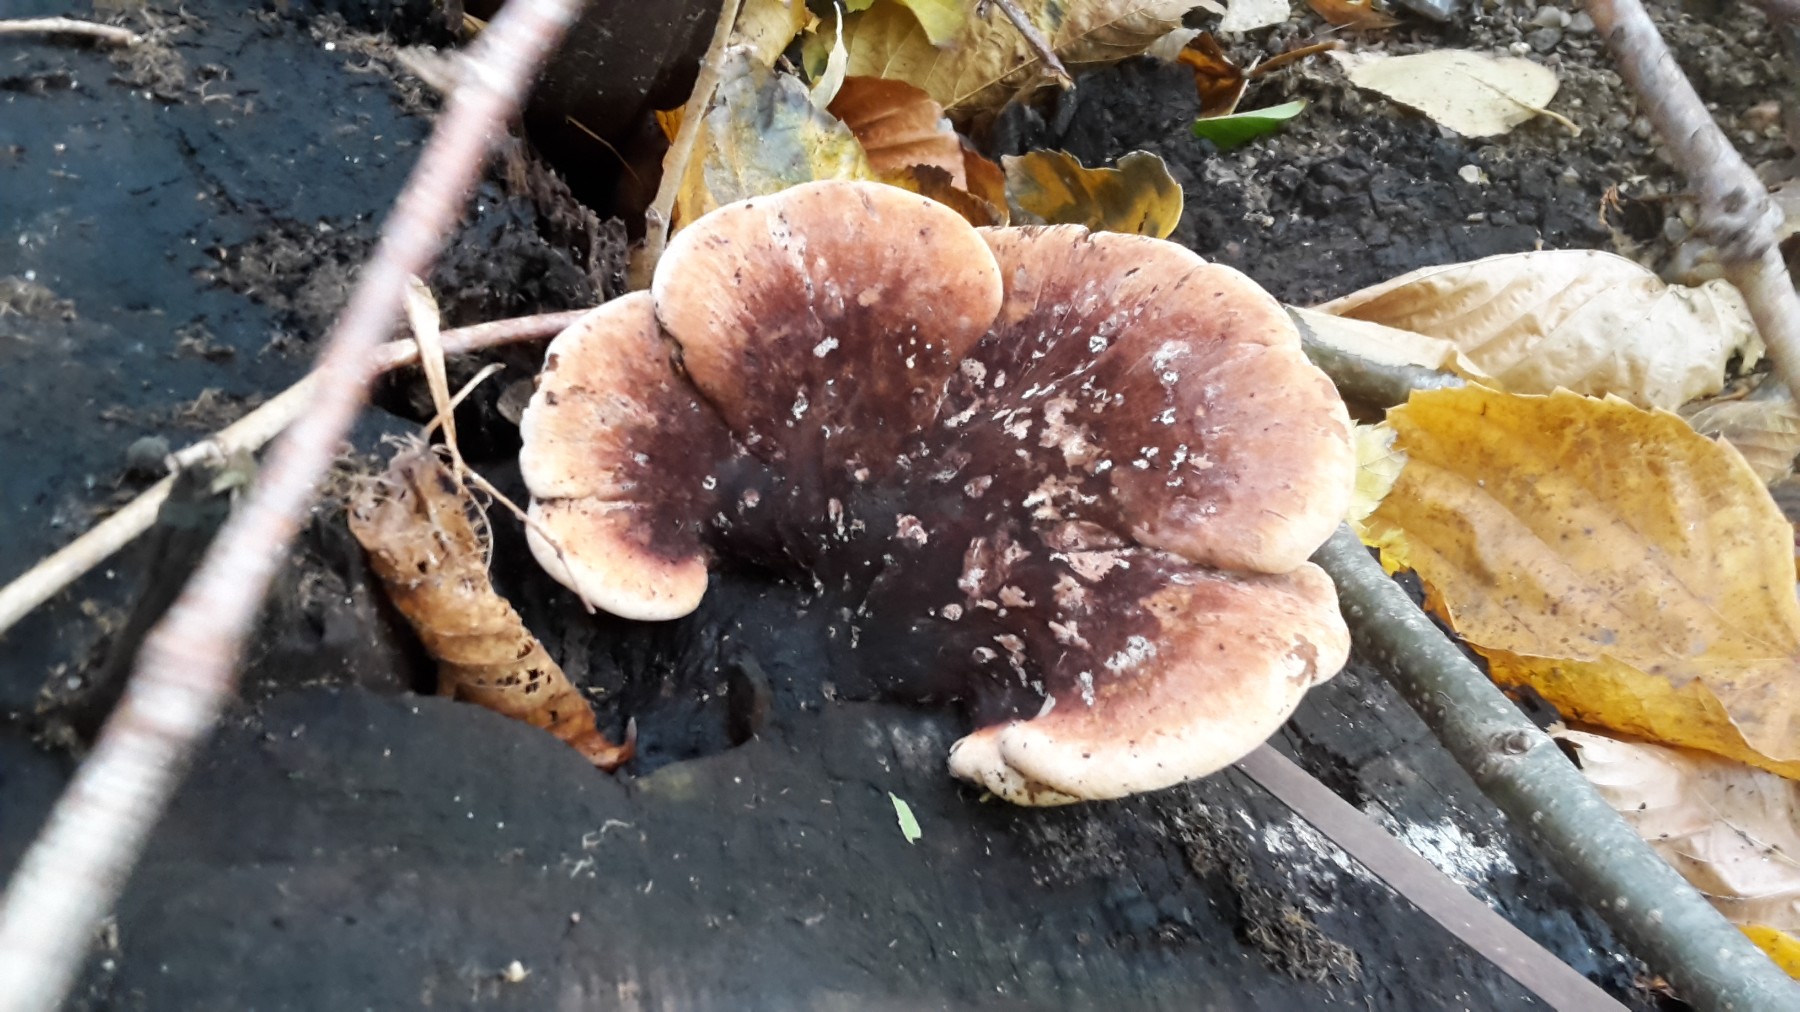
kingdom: Fungi
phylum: Basidiomycota
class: Agaricomycetes
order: Polyporales
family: Ischnodermataceae
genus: Ischnoderma
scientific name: Ischnoderma resinosum
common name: løv-tjæreporesvamp
